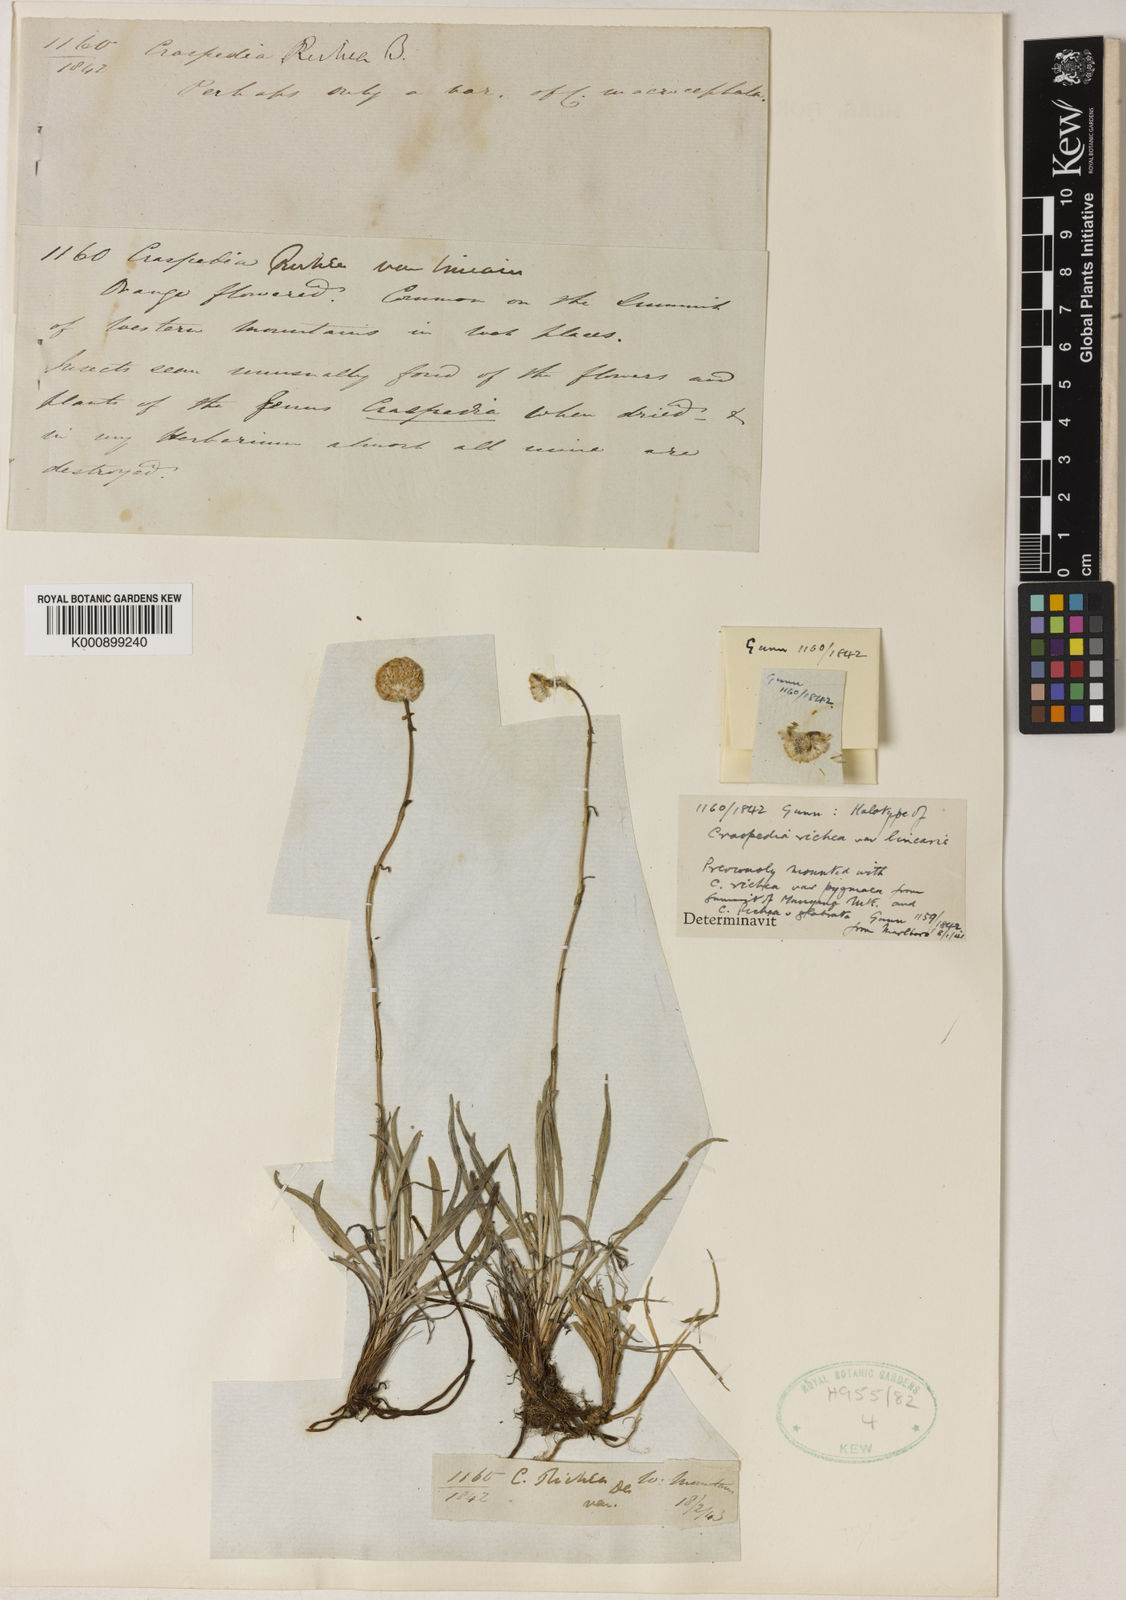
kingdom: Plantae
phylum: Tracheophyta
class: Magnoliopsida
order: Asterales
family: Asteraceae
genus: Craspedia
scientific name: Craspedia glauca
